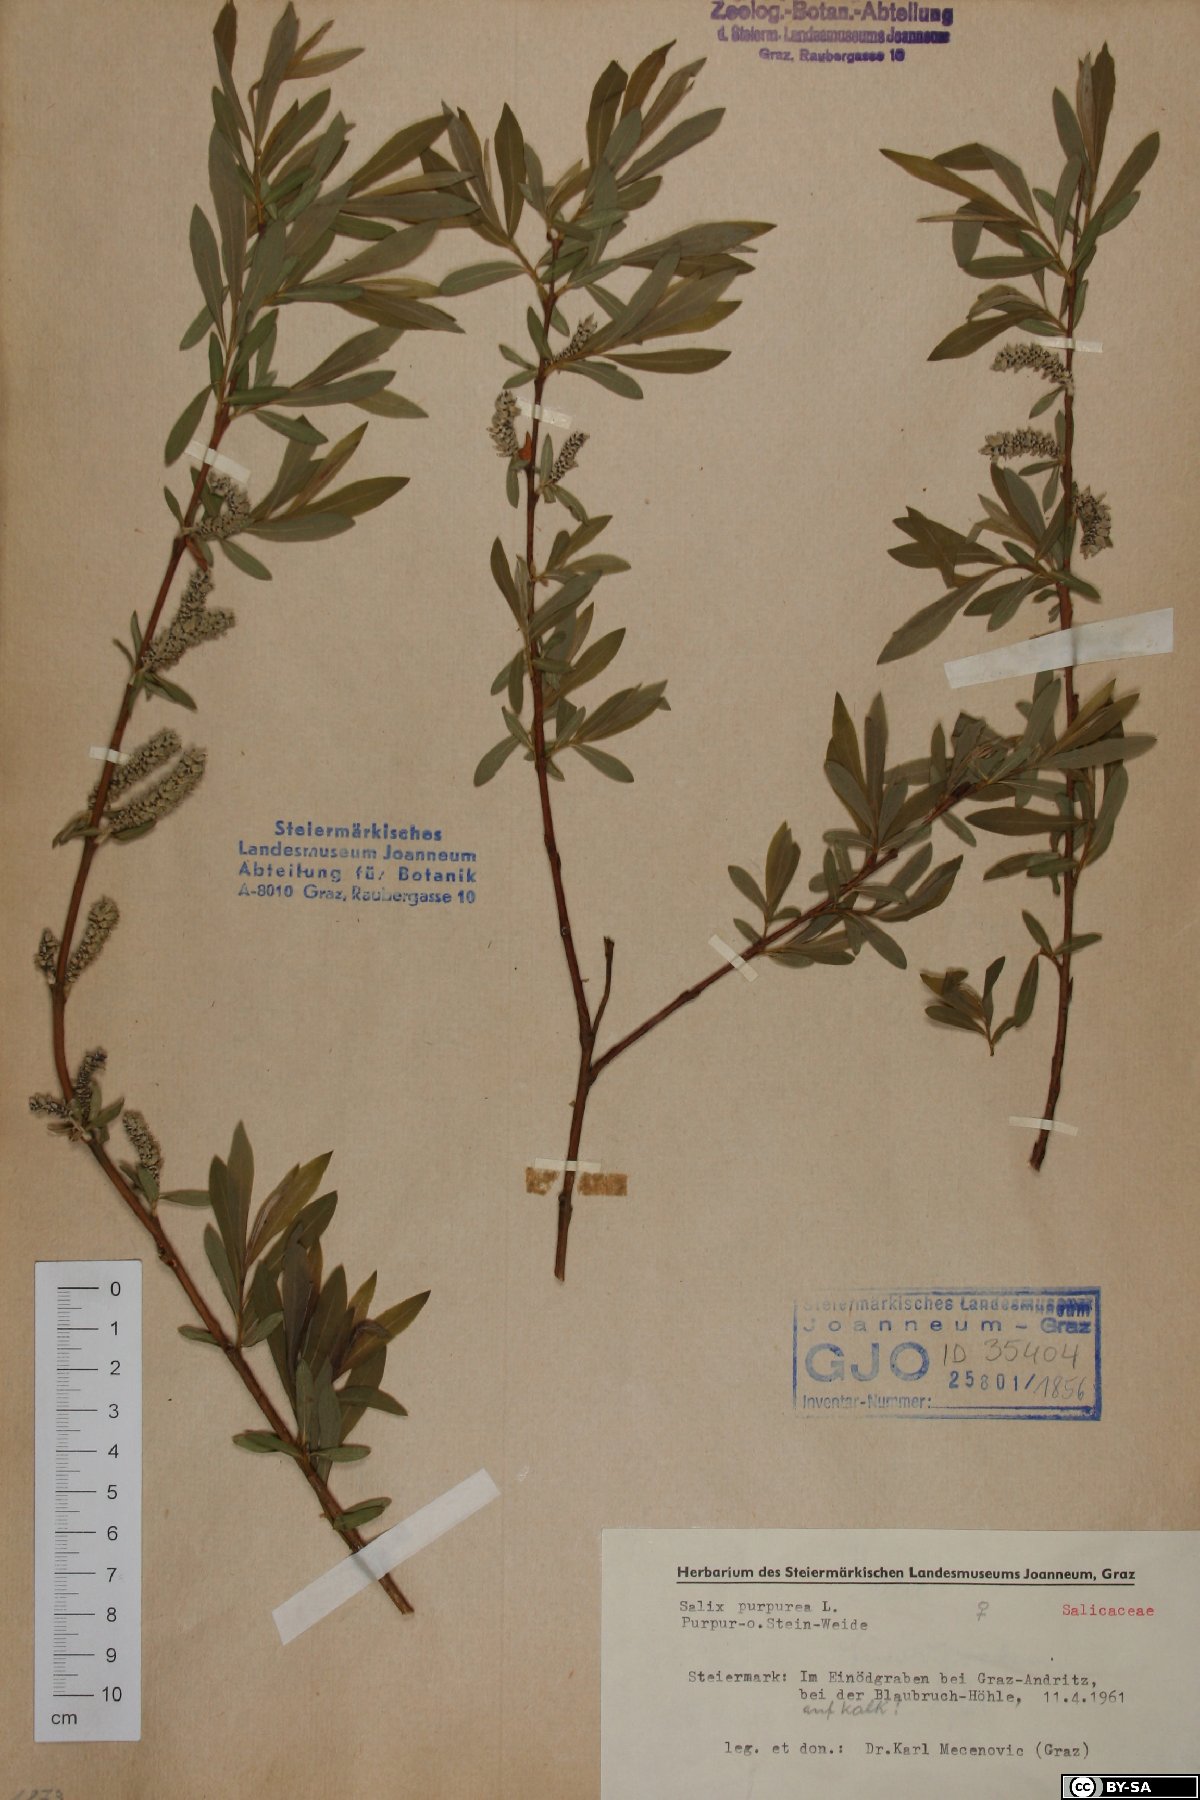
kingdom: Plantae
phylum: Tracheophyta
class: Magnoliopsida
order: Malpighiales
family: Salicaceae
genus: Salix
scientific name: Salix purpurea
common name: Purple willow
